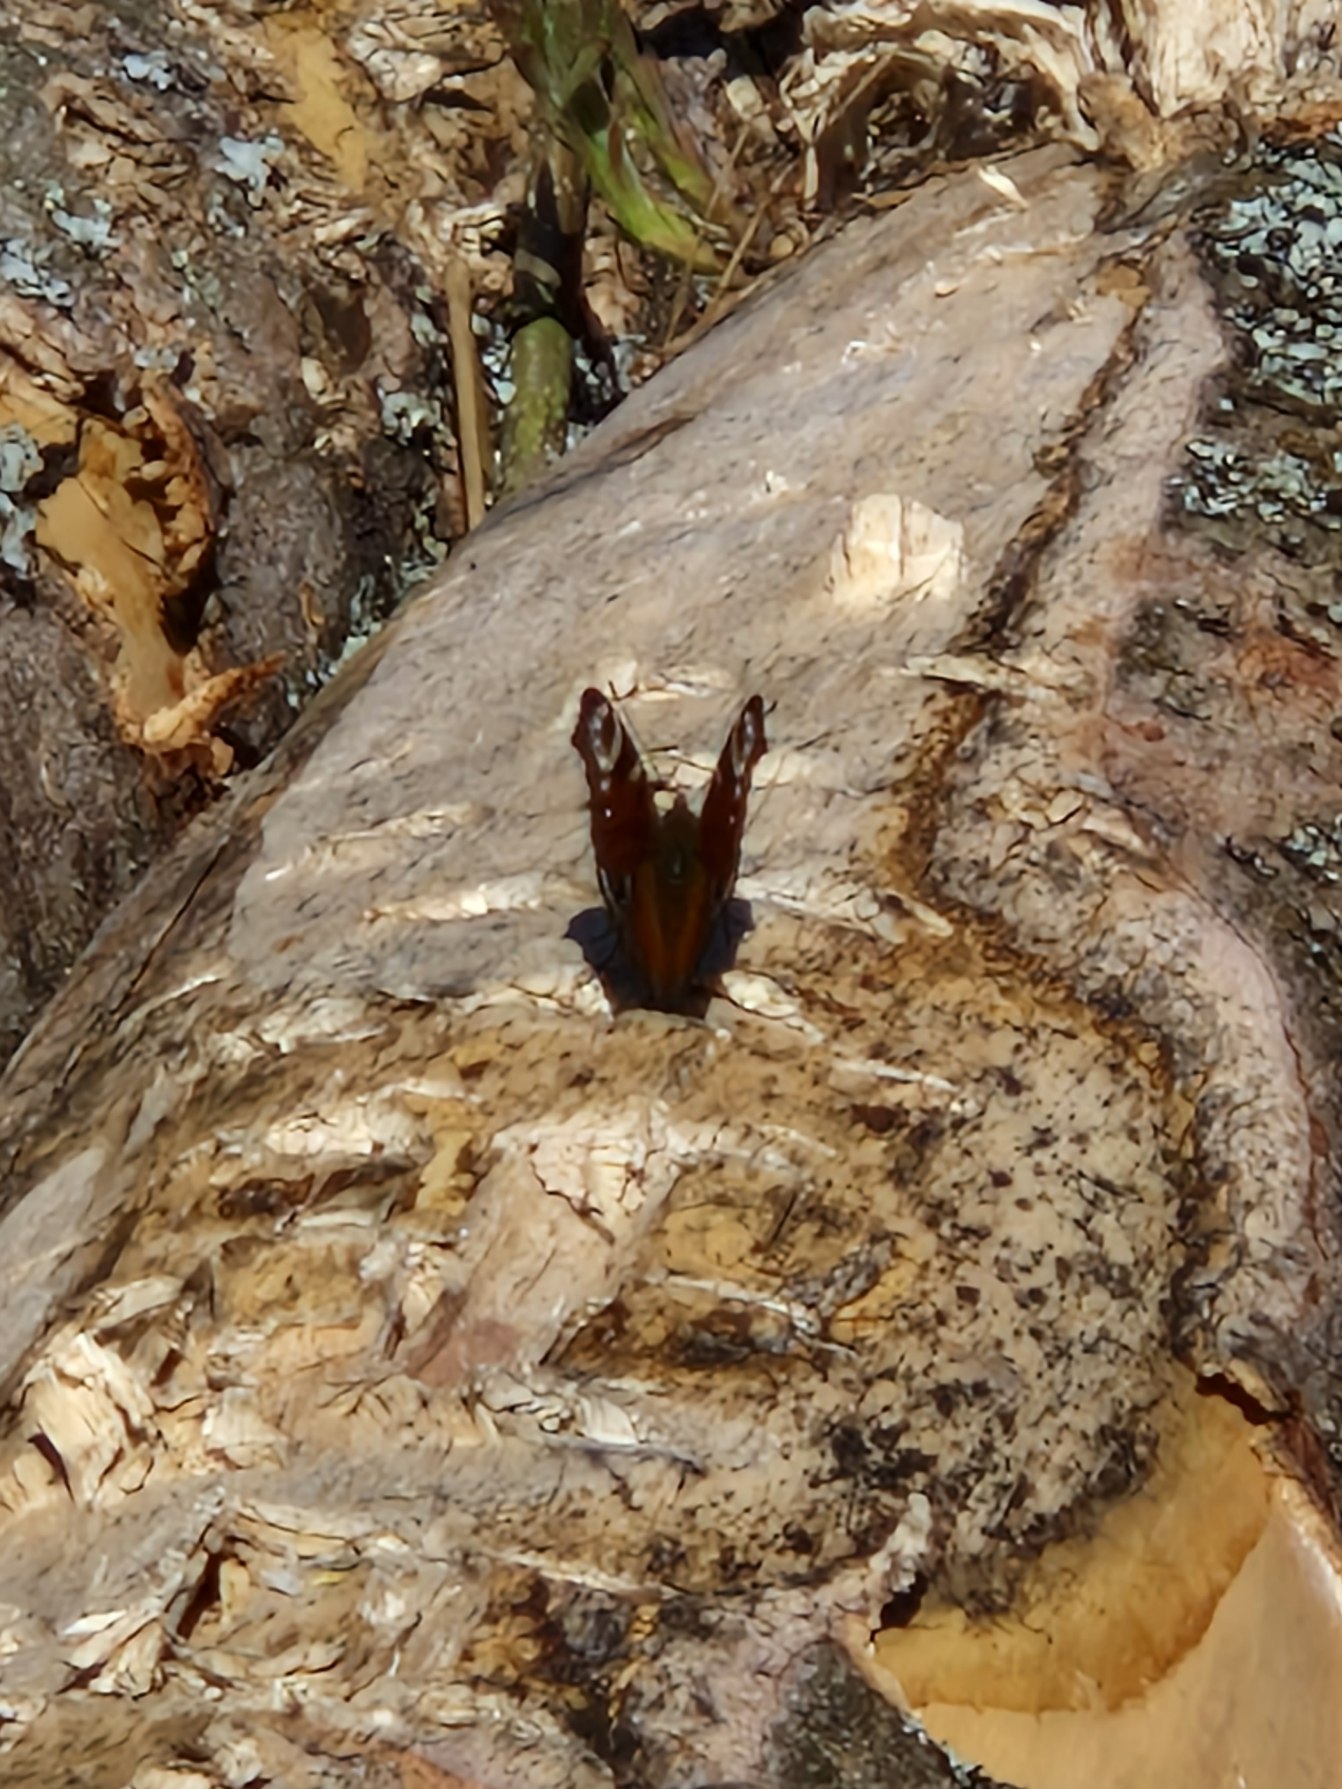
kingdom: Animalia
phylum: Arthropoda
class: Insecta
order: Lepidoptera
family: Nymphalidae
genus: Aglais
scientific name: Aglais io
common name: Dagpåfugleøje
